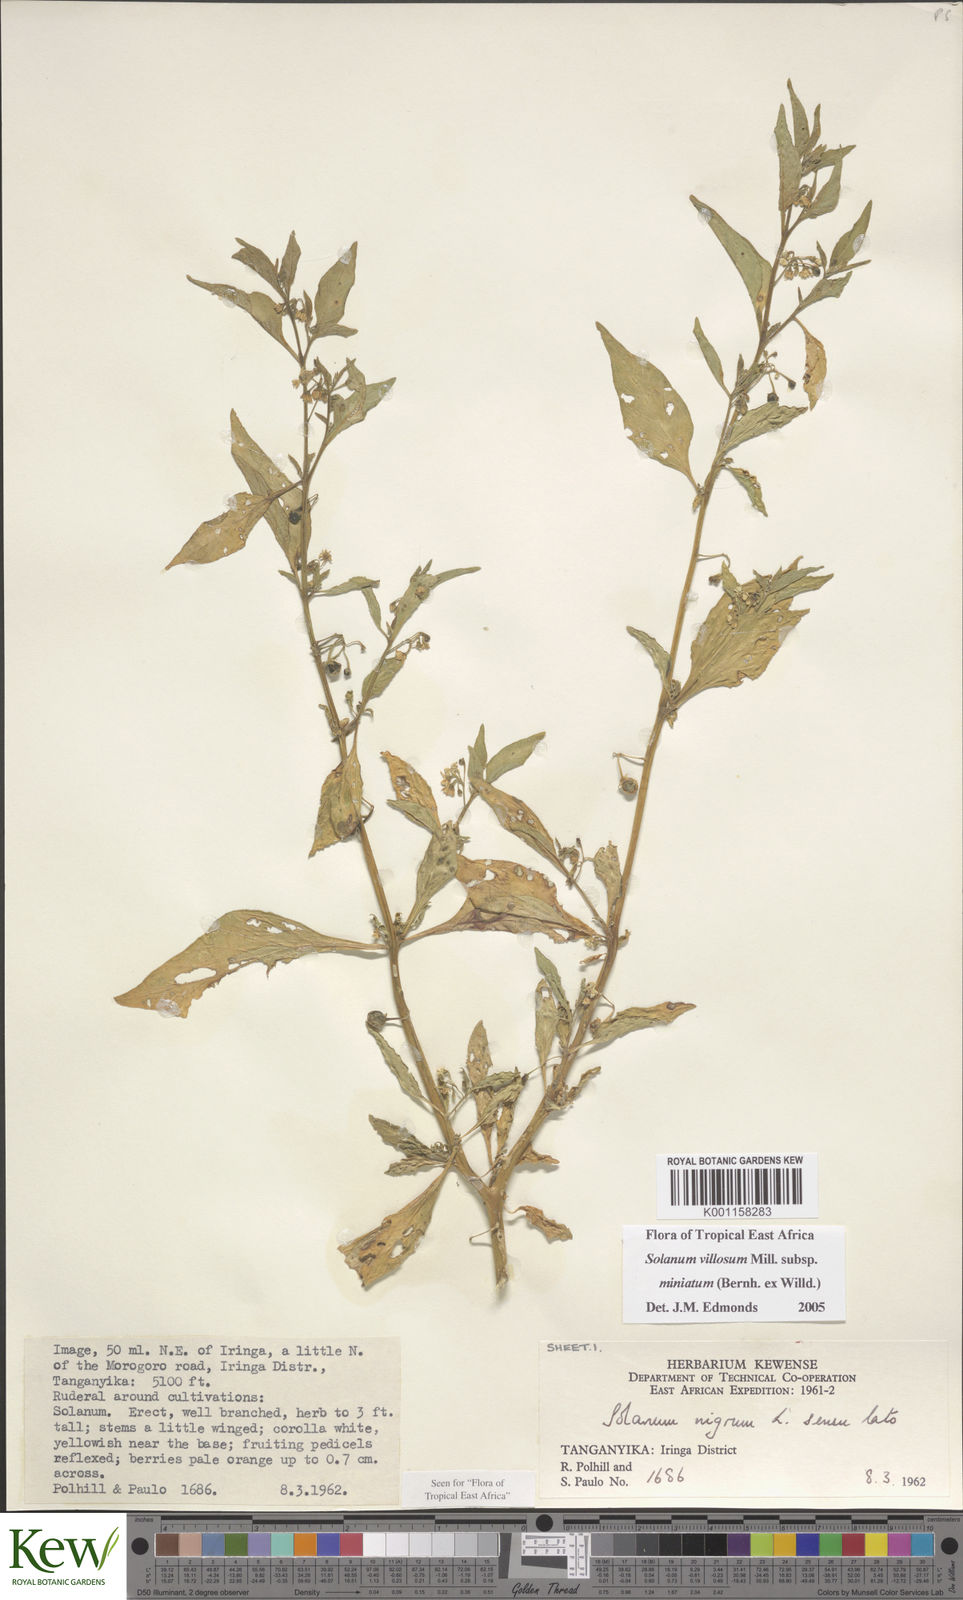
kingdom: Plantae
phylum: Tracheophyta
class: Magnoliopsida
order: Solanales
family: Solanaceae
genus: Solanum
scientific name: Solanum villosum
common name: Red nightshade
